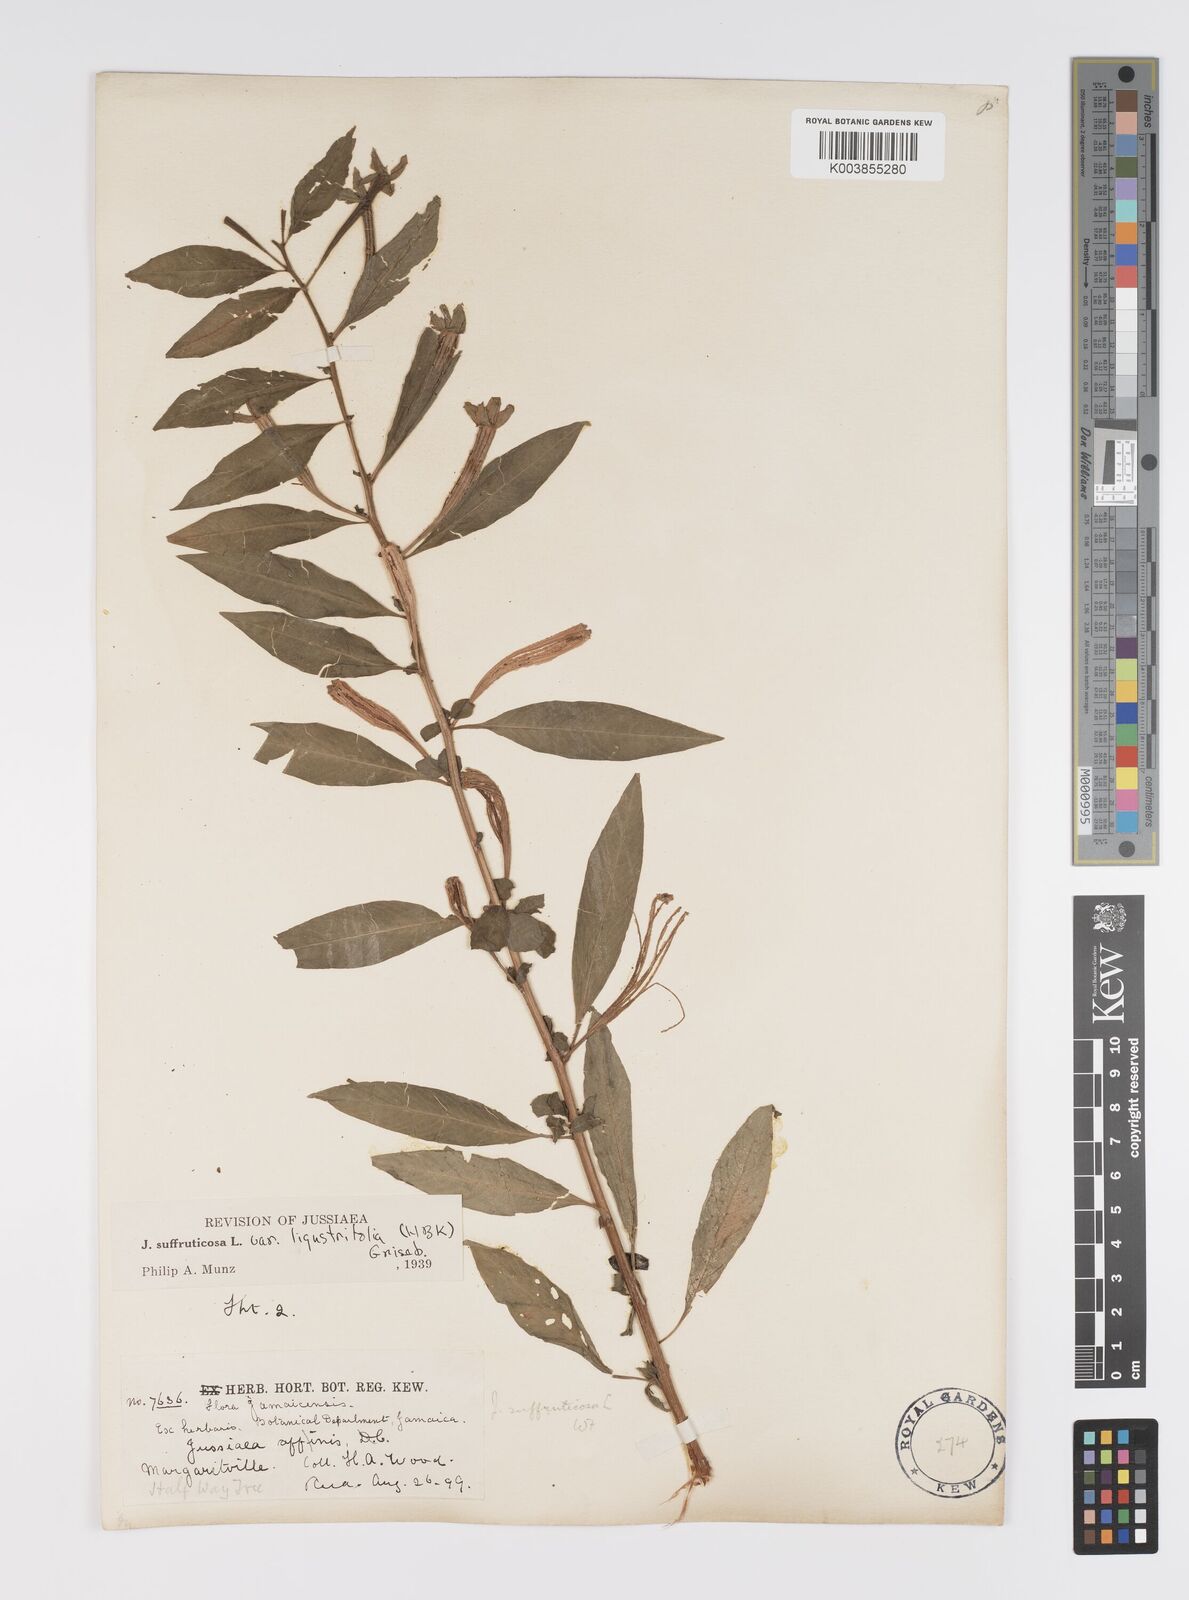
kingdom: Plantae
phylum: Tracheophyta
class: Magnoliopsida
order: Myrtales
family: Onagraceae
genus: Ludwigia
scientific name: Ludwigia octovalvis
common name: Water-primrose
